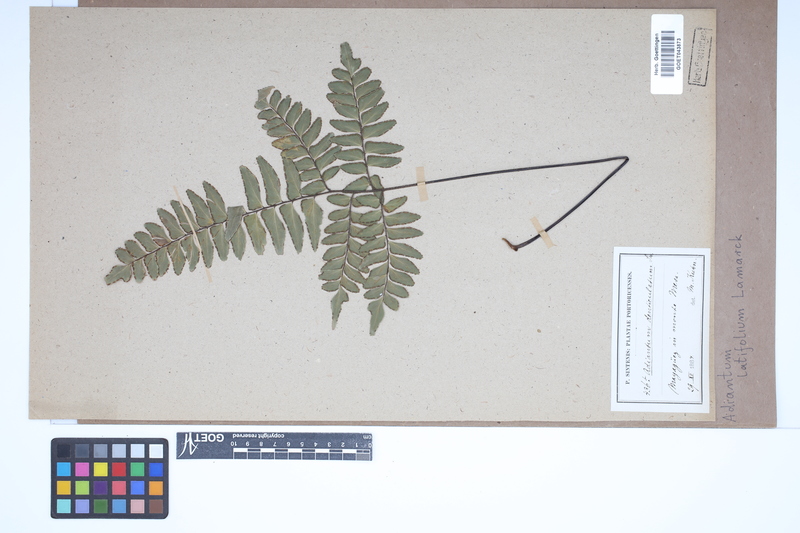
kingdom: Plantae
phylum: Tracheophyta
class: Polypodiopsida
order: Polypodiales
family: Pteridaceae
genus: Adiantum
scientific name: Adiantum latifolium
